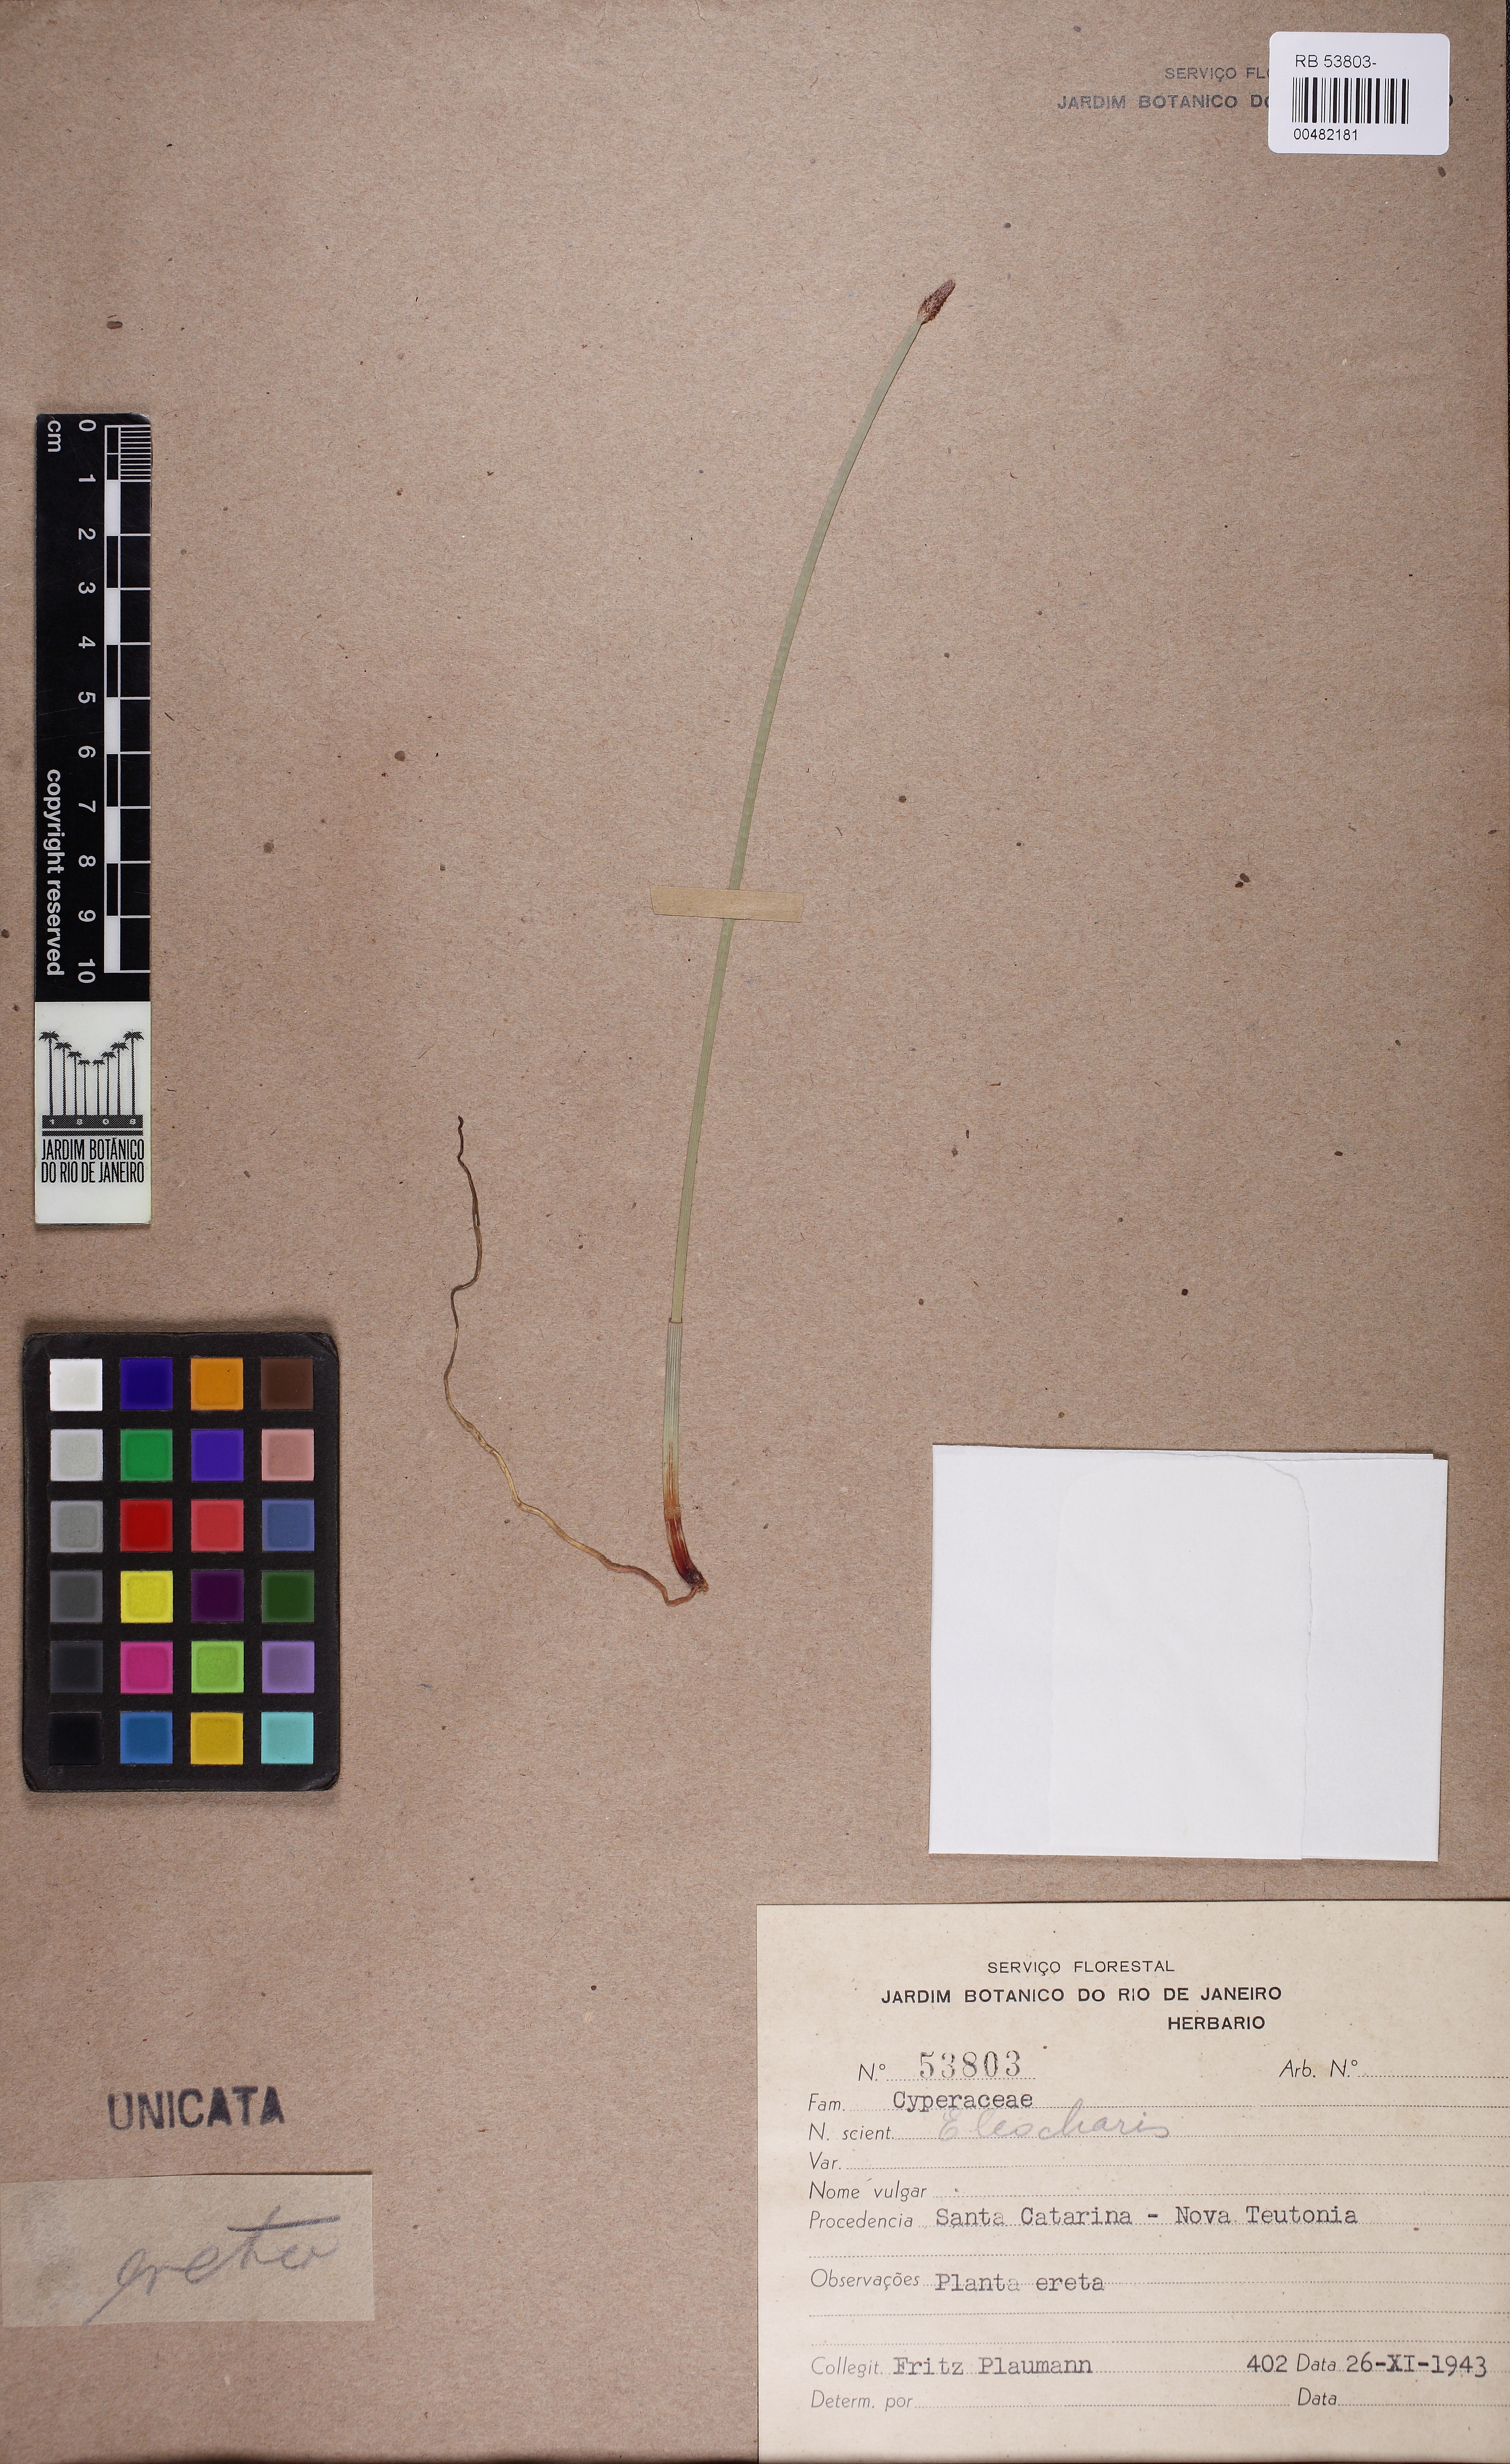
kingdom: Plantae
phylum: Tracheophyta
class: Liliopsida
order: Poales
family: Cyperaceae
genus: Eleocharis
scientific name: Eleocharis montana
